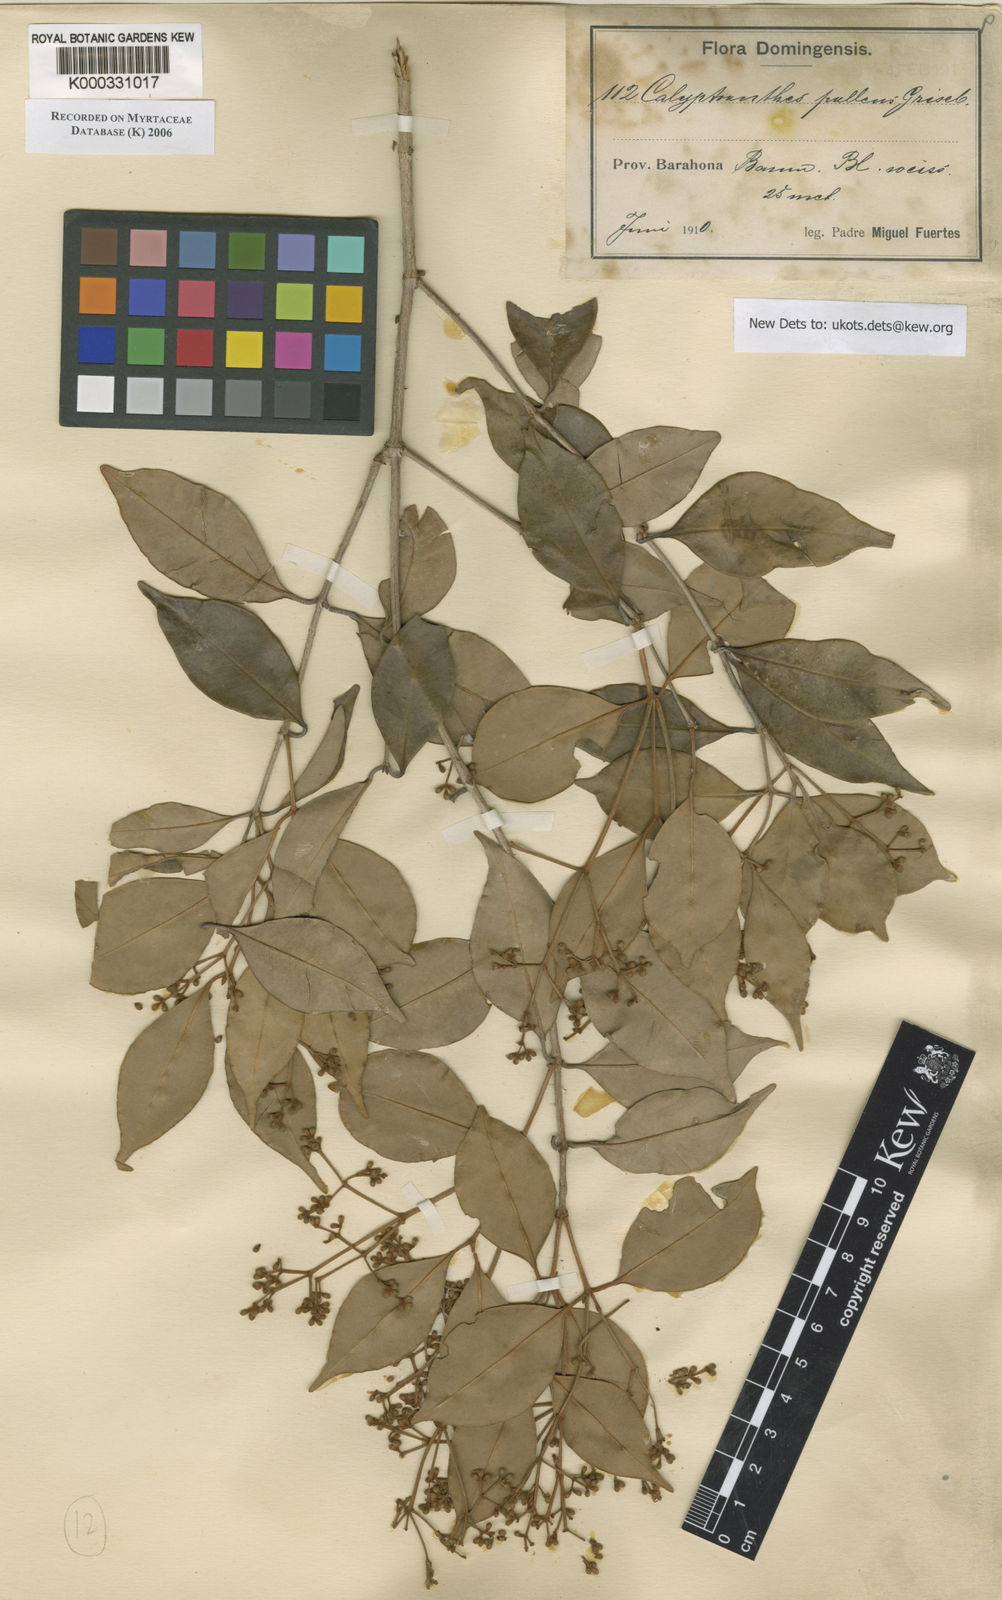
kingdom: Plantae
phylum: Tracheophyta
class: Magnoliopsida
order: Myrtales
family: Myrtaceae
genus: Myrcia
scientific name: Myrcia neopallens
